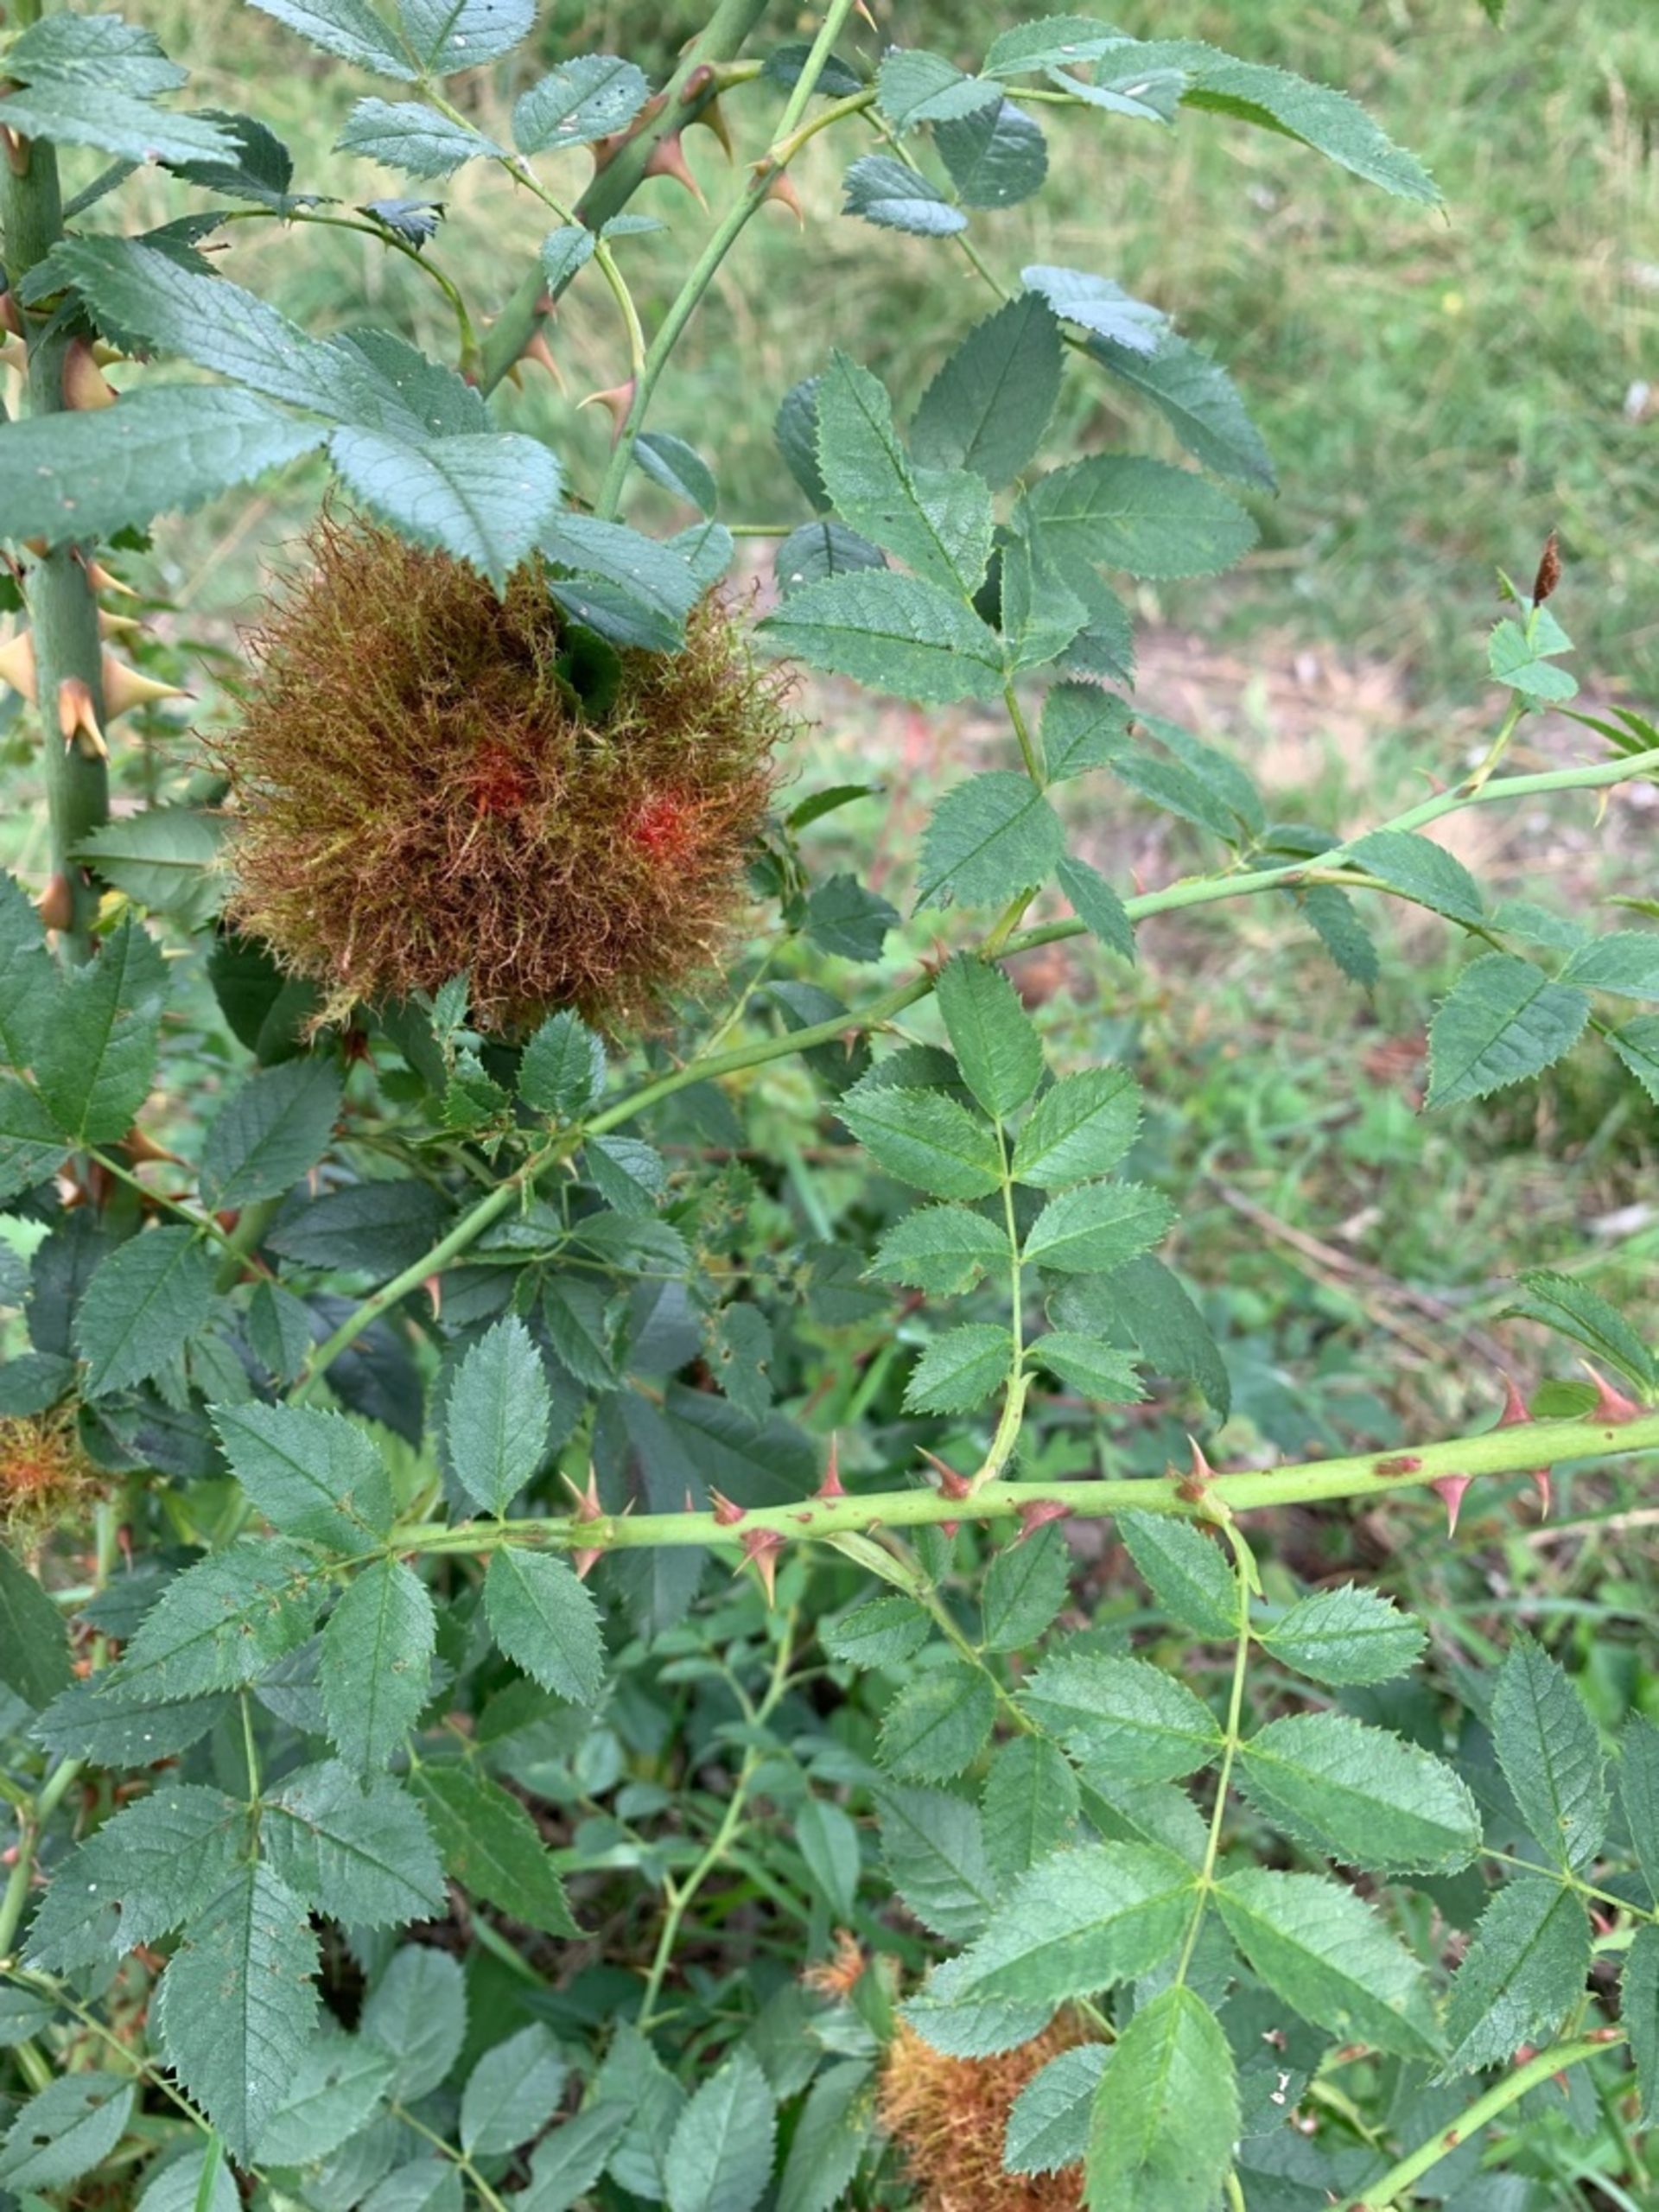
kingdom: Animalia
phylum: Arthropoda
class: Insecta
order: Hymenoptera
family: Cynipidae
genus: Diplolepis
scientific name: Diplolepis rosae
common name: Bedeguargalhveps
